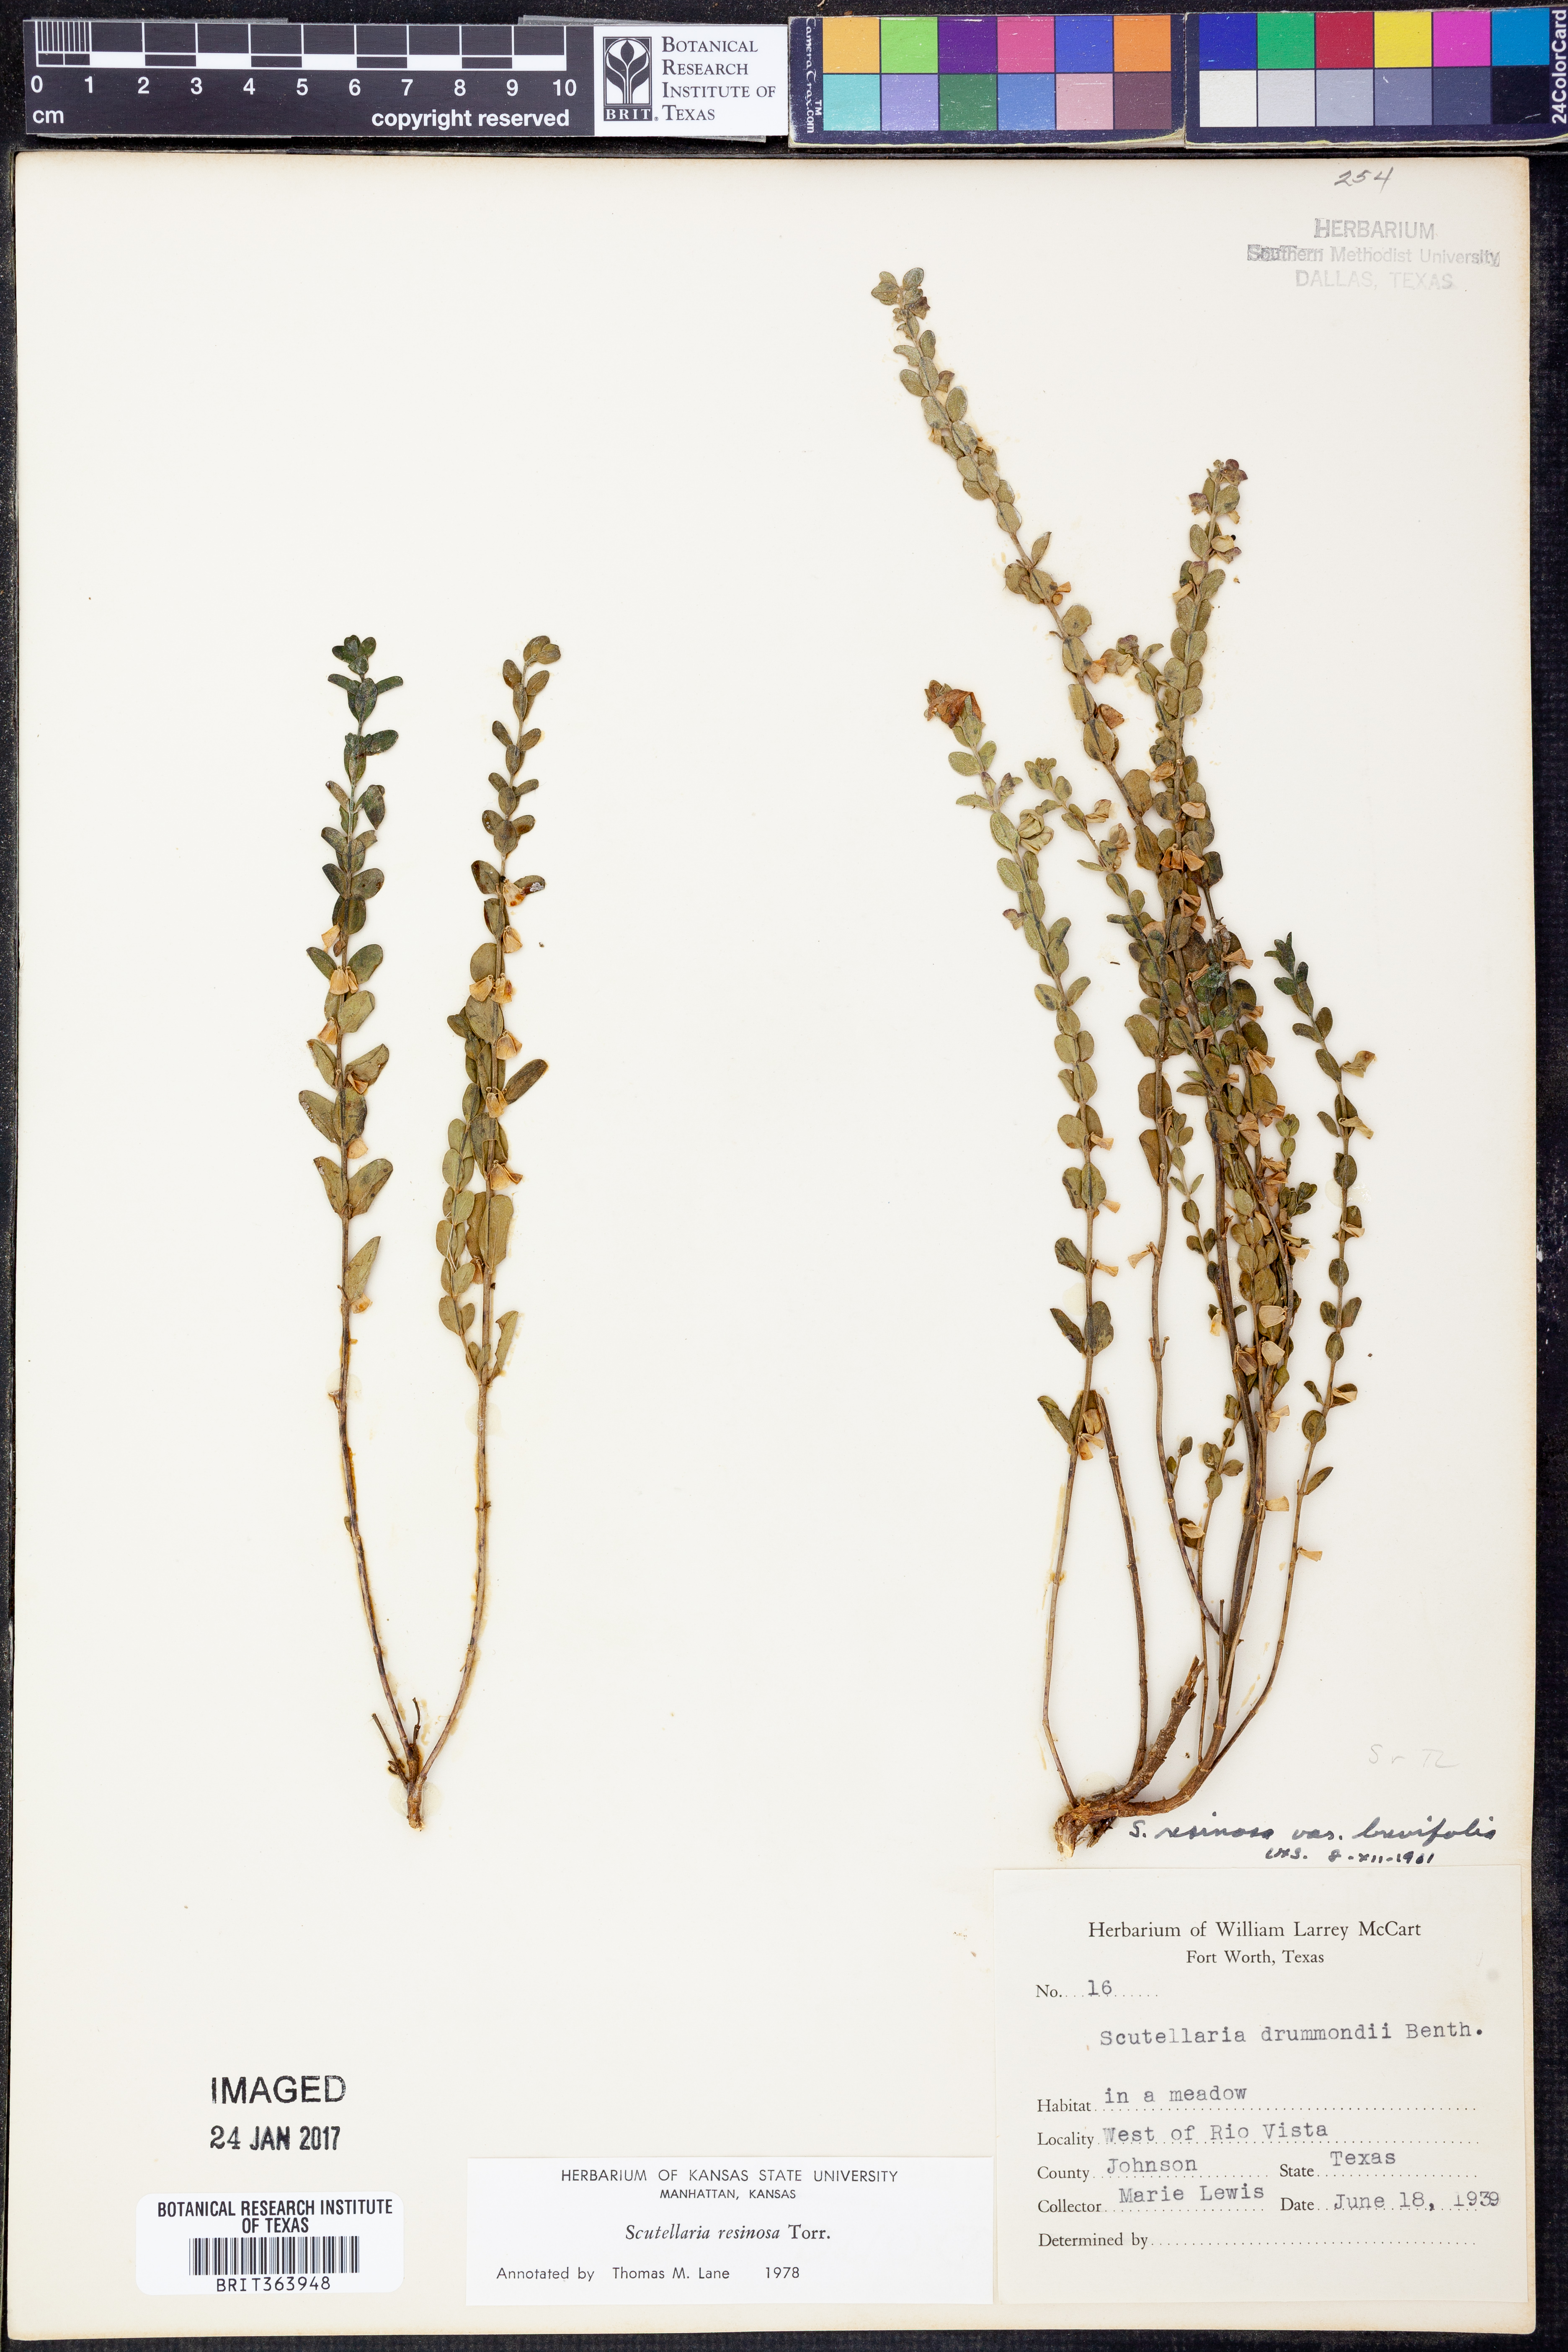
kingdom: Plantae
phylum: Tracheophyta
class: Magnoliopsida
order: Lamiales
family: Lamiaceae
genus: Scutellaria
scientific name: Scutellaria resinosa
